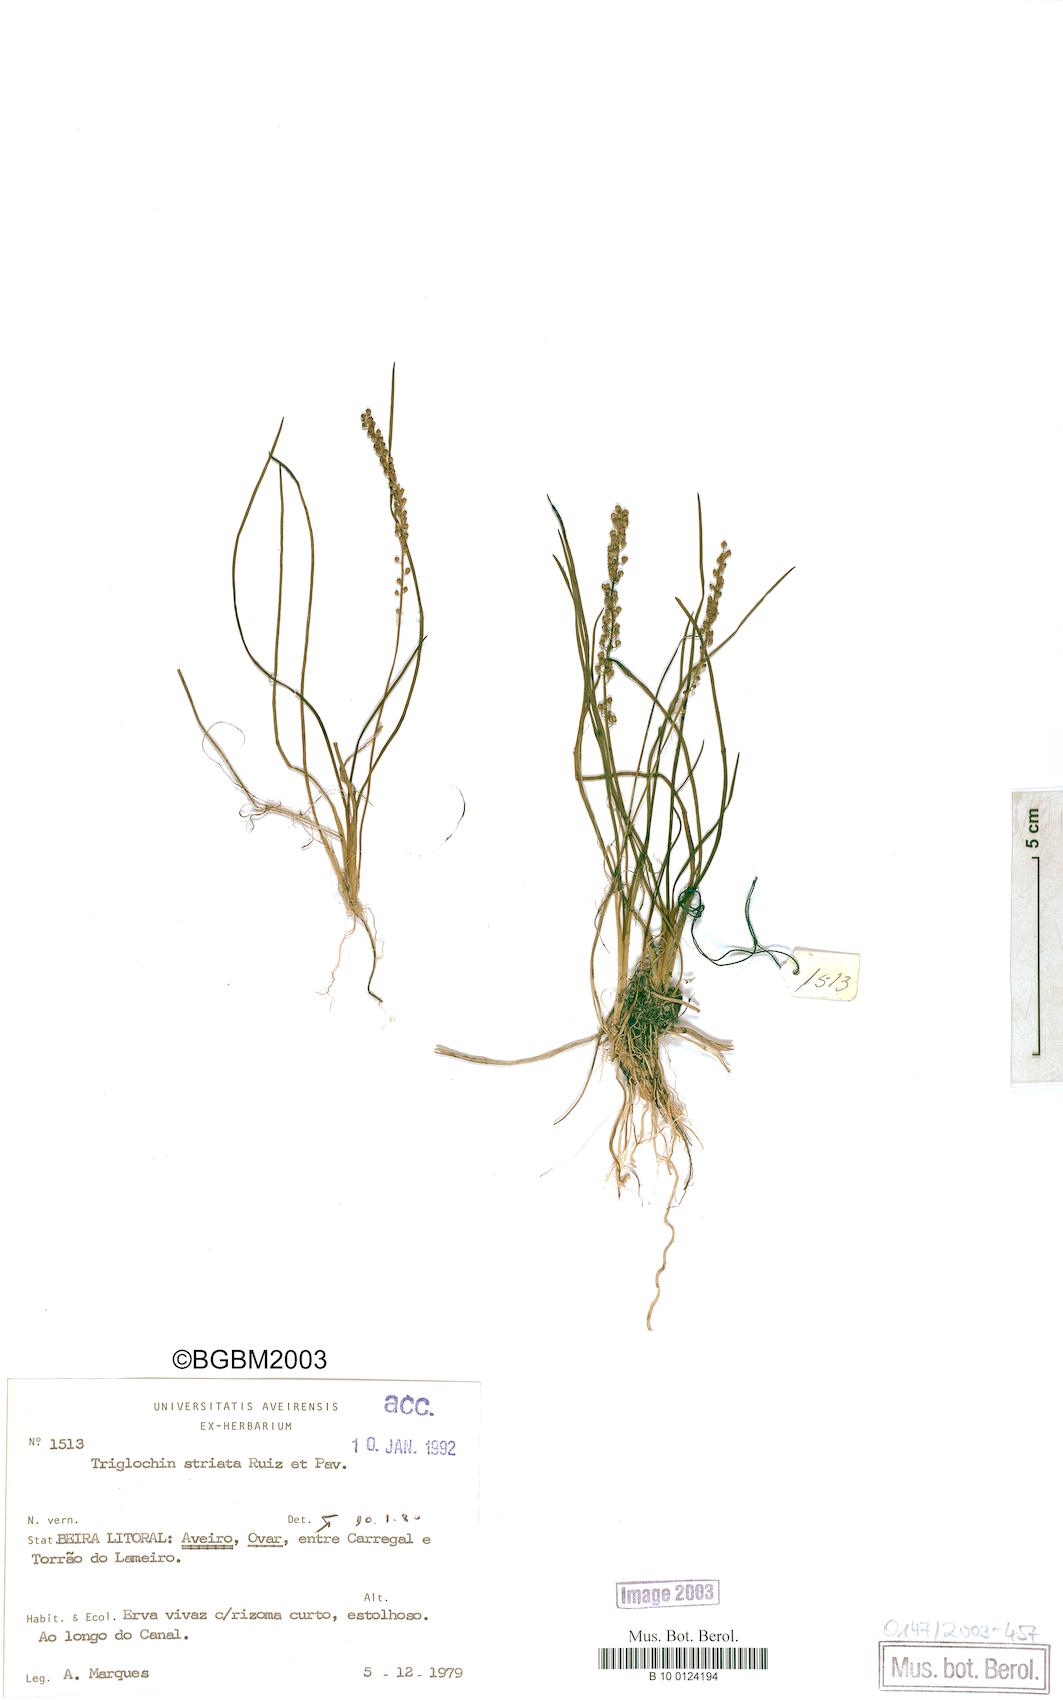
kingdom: Plantae
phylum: Tracheophyta
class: Liliopsida
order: Alismatales
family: Juncaginaceae
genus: Triglochin
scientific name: Triglochin striata
